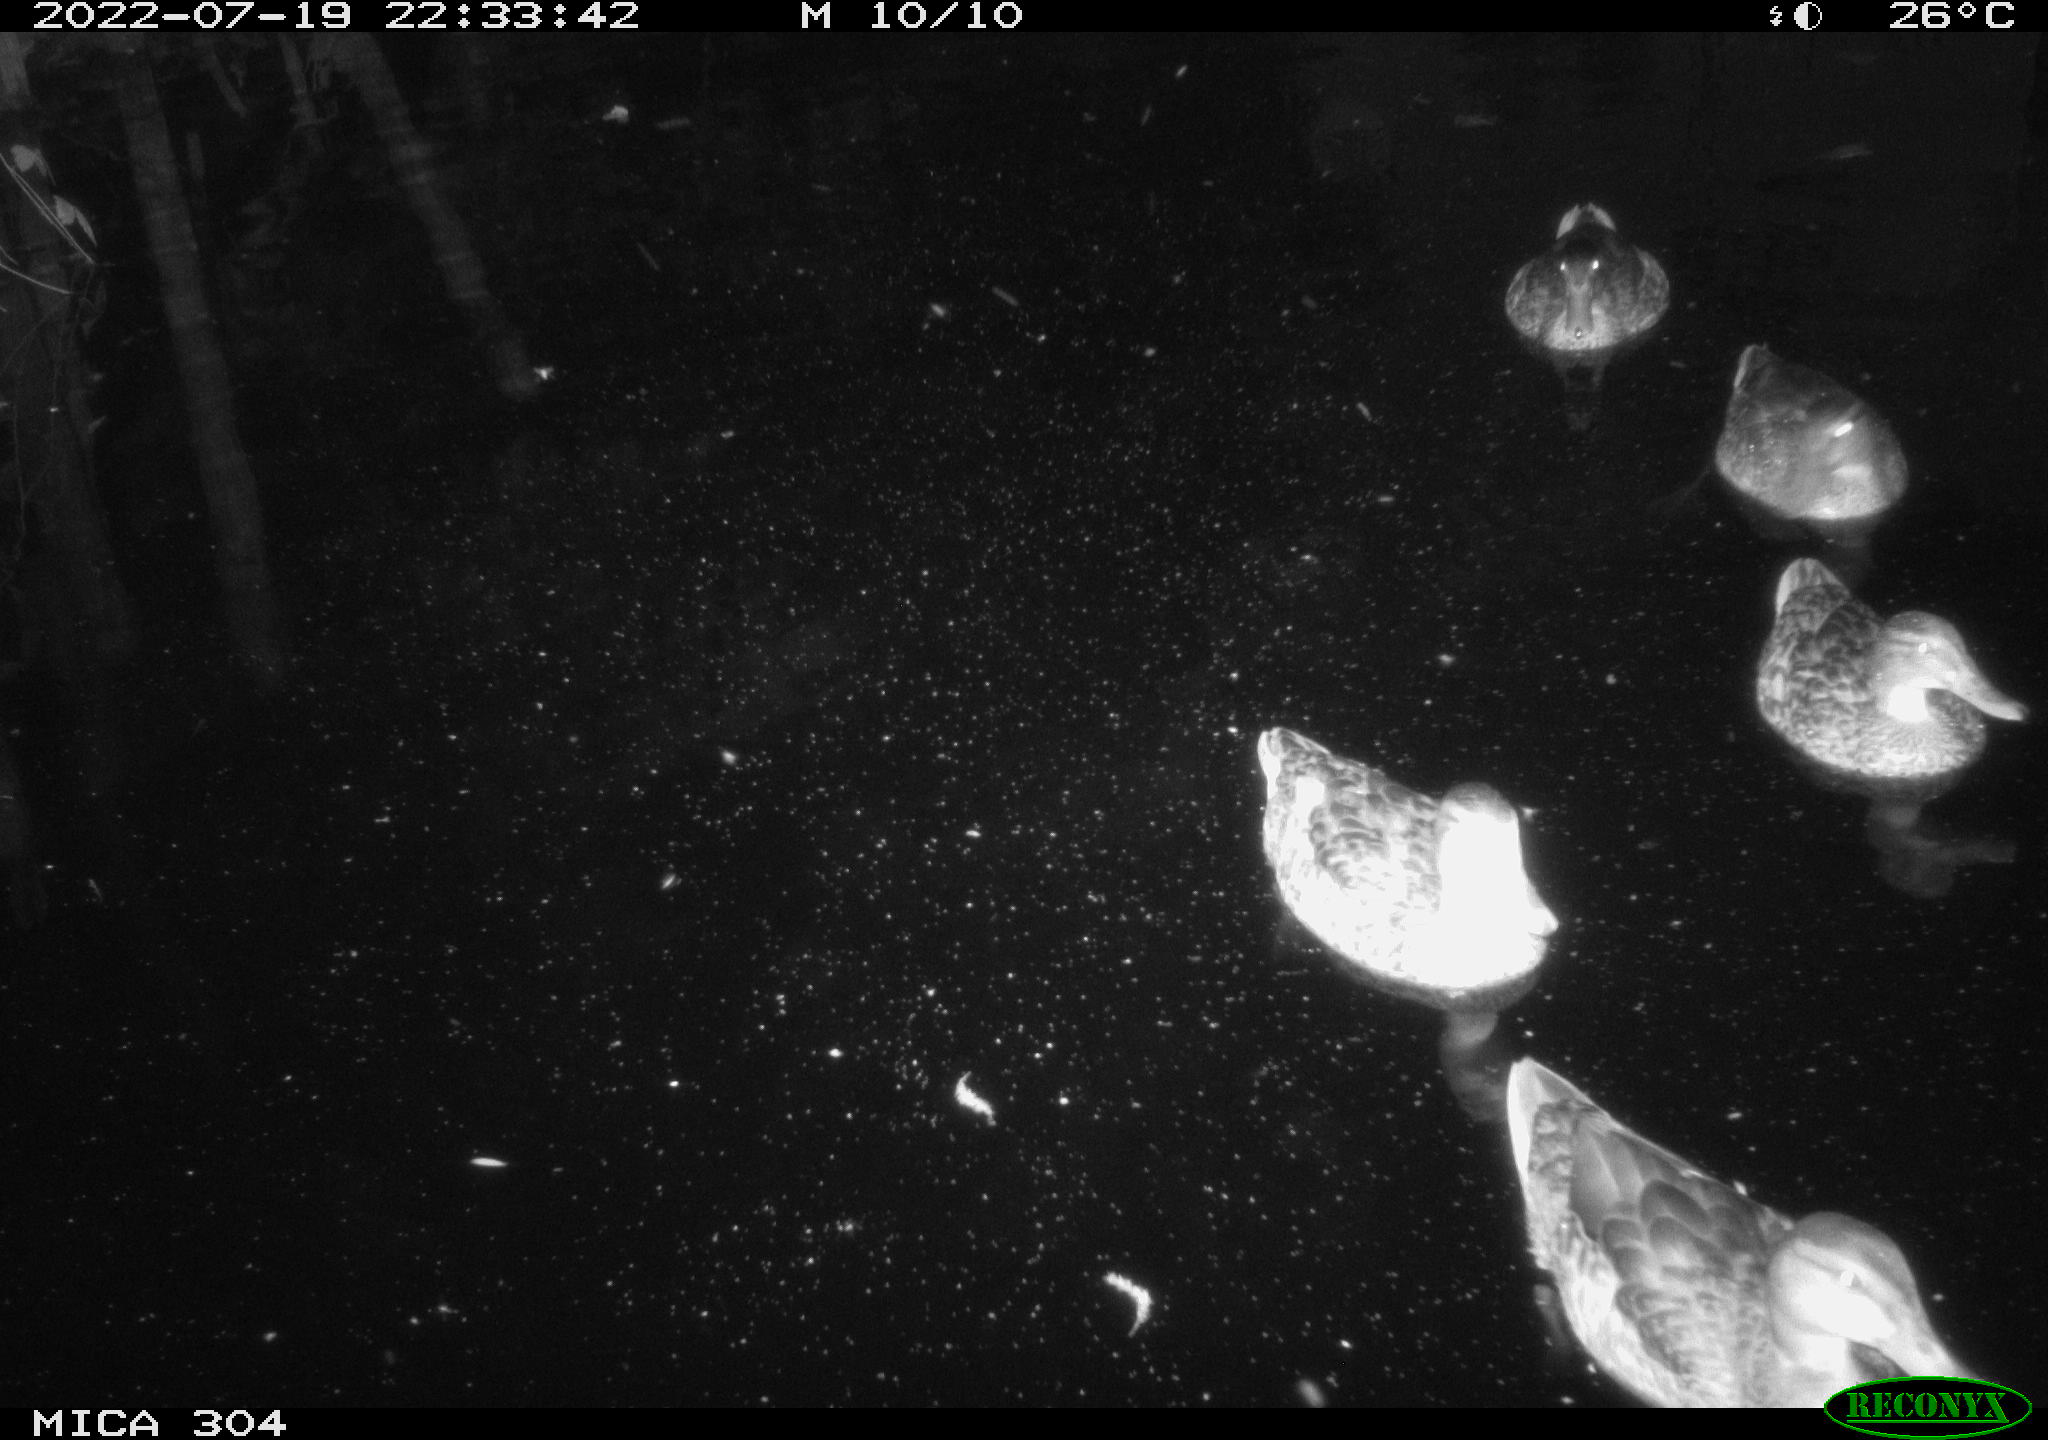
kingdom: Animalia
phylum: Chordata
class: Aves
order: Anseriformes
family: Anatidae
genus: Anas
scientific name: Anas platyrhynchos
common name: Mallard
